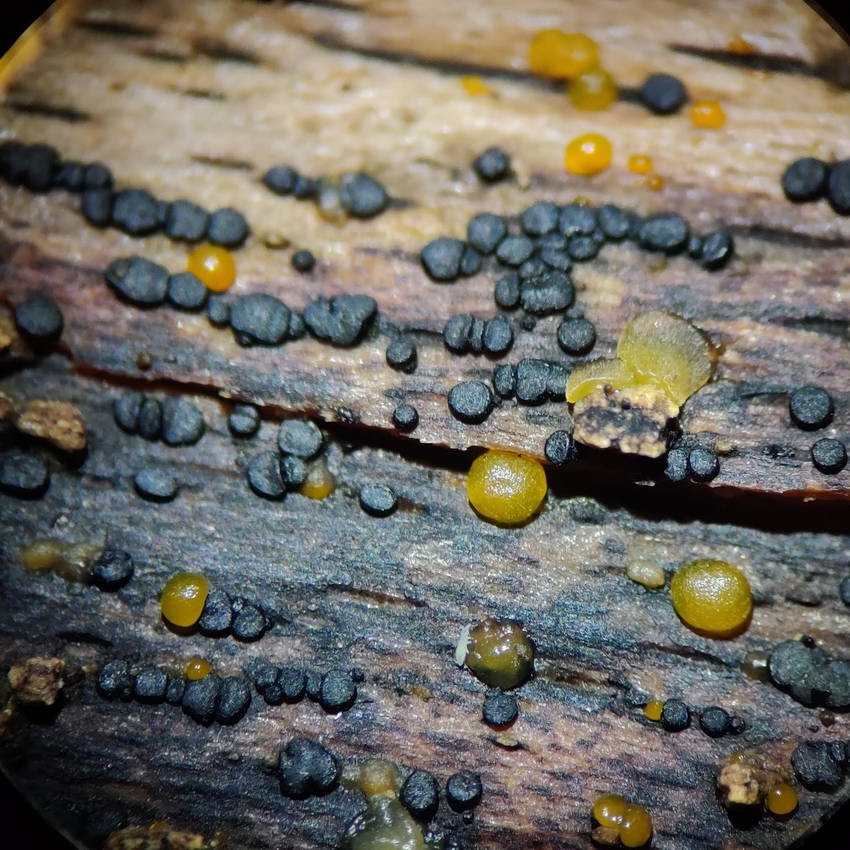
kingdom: Fungi
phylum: Ascomycota
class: Leotiomycetes
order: Helotiales
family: Helotiaceae
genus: Durella
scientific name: Durella macrospora
